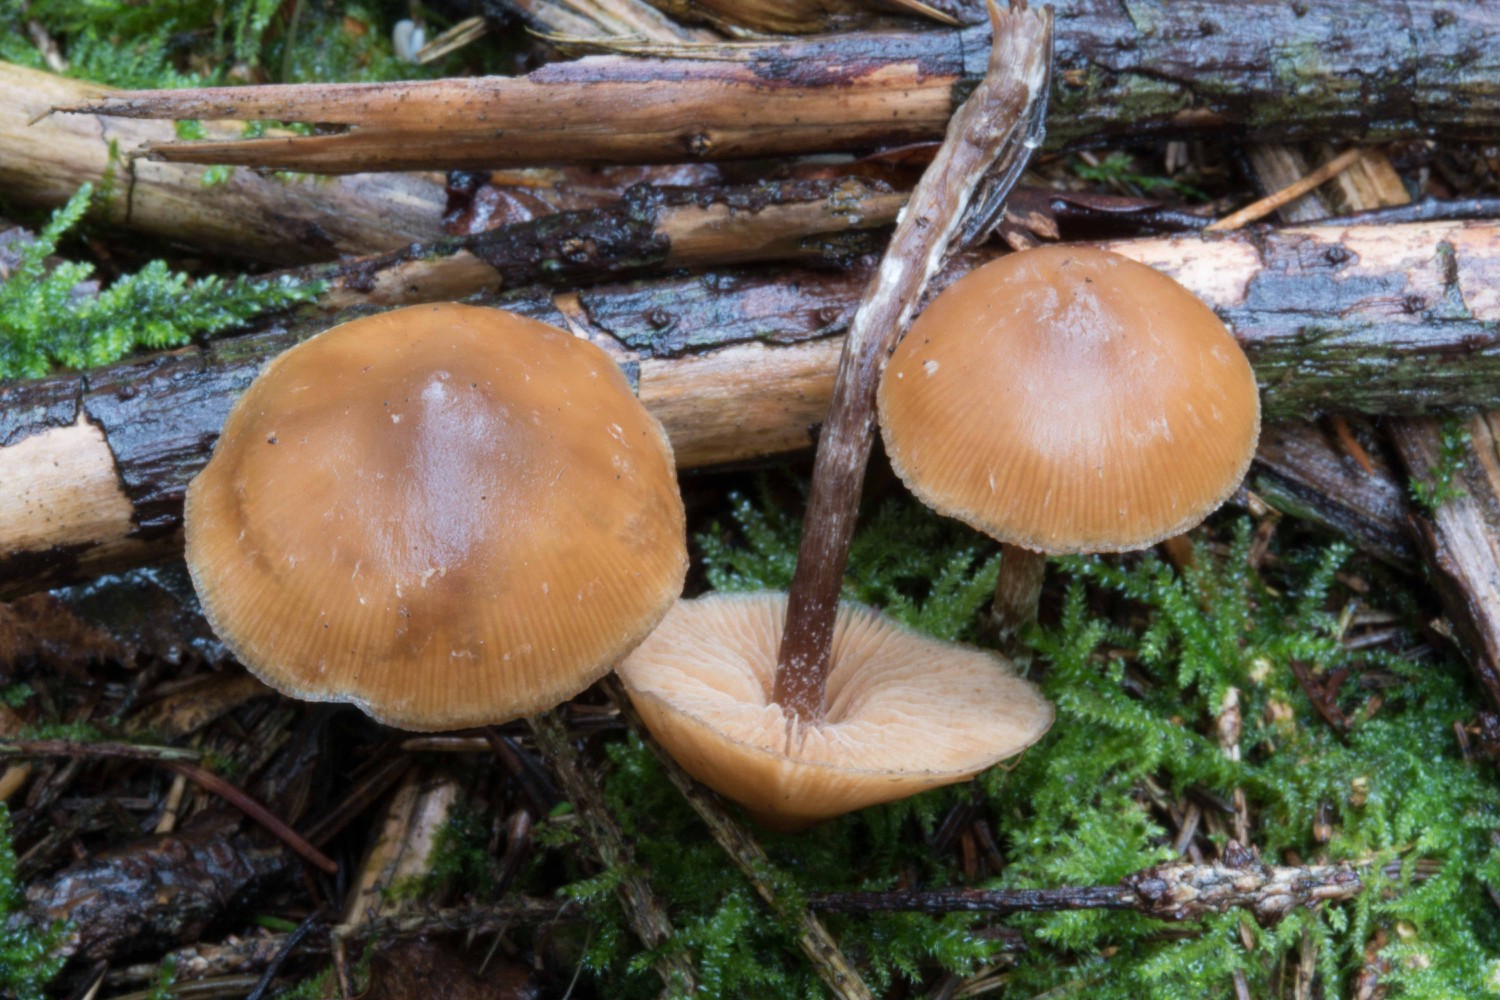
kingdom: Fungi
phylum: Basidiomycota
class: Agaricomycetes
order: Agaricales
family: Hymenogastraceae
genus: Galerina
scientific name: Galerina marginata
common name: randbæltet hjelmhat
